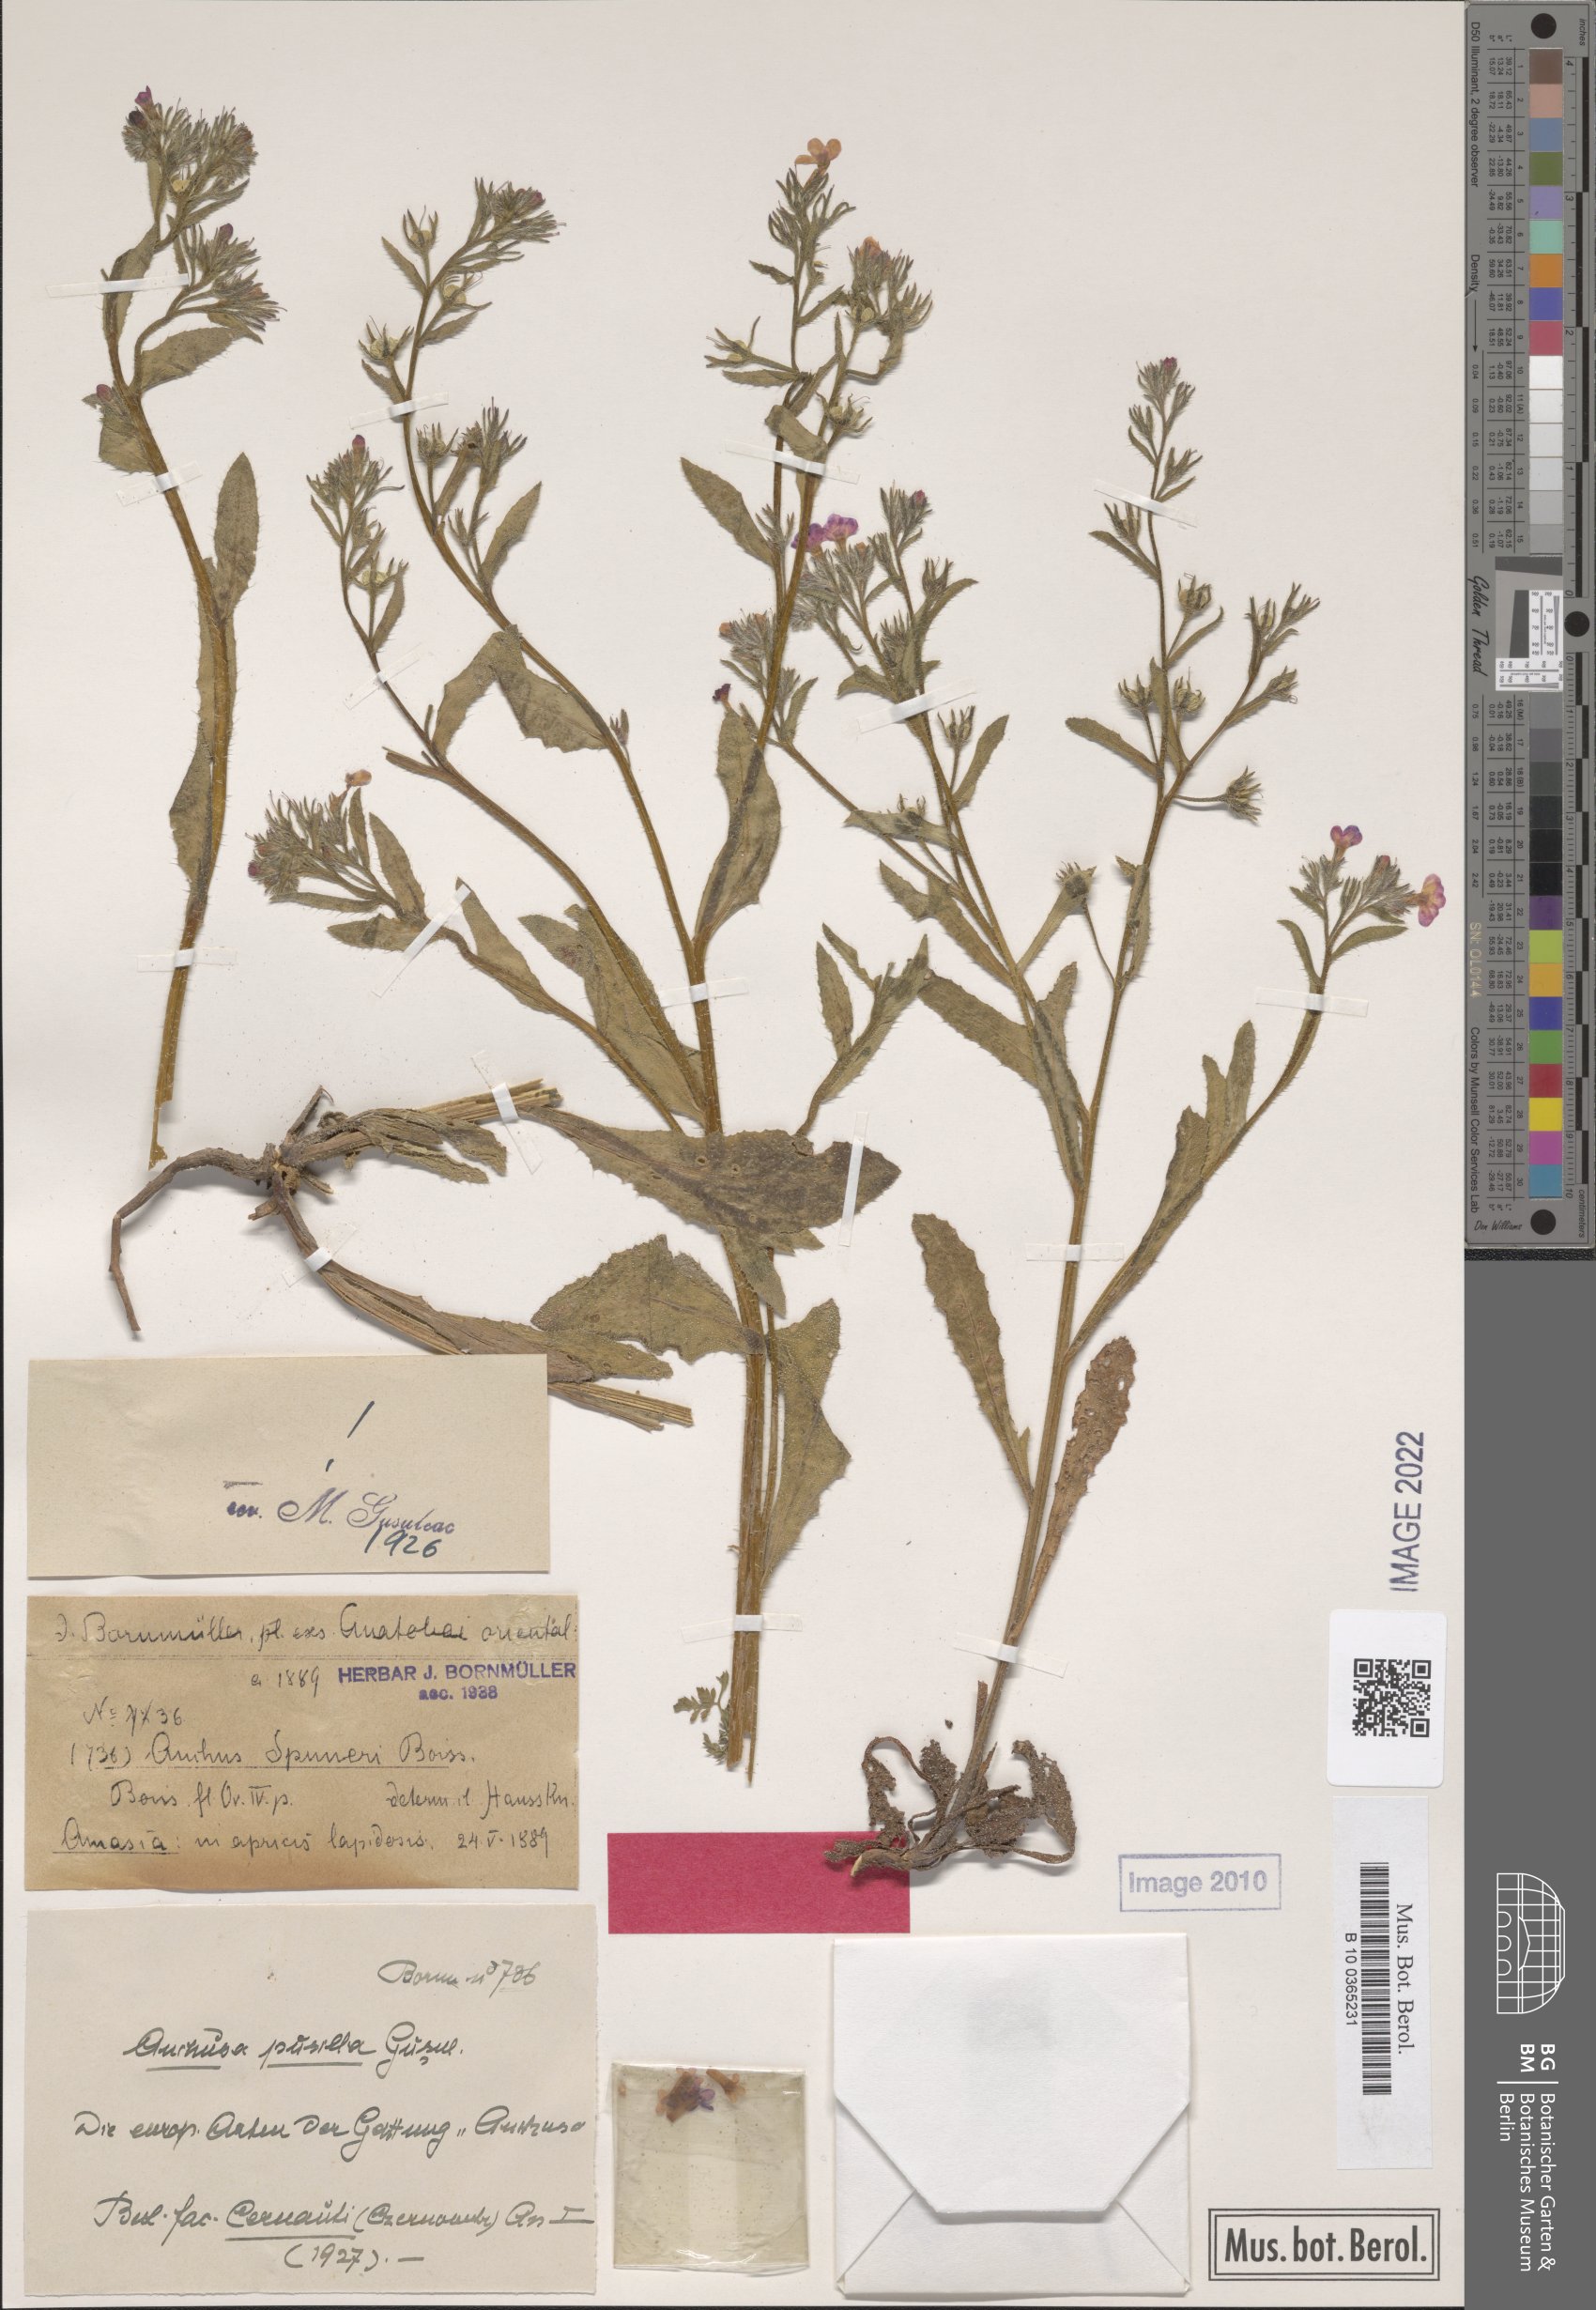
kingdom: Plantae
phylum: Tracheophyta
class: Magnoliopsida
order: Boraginales
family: Boraginaceae
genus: Anchusa
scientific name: Anchusa pusilla
